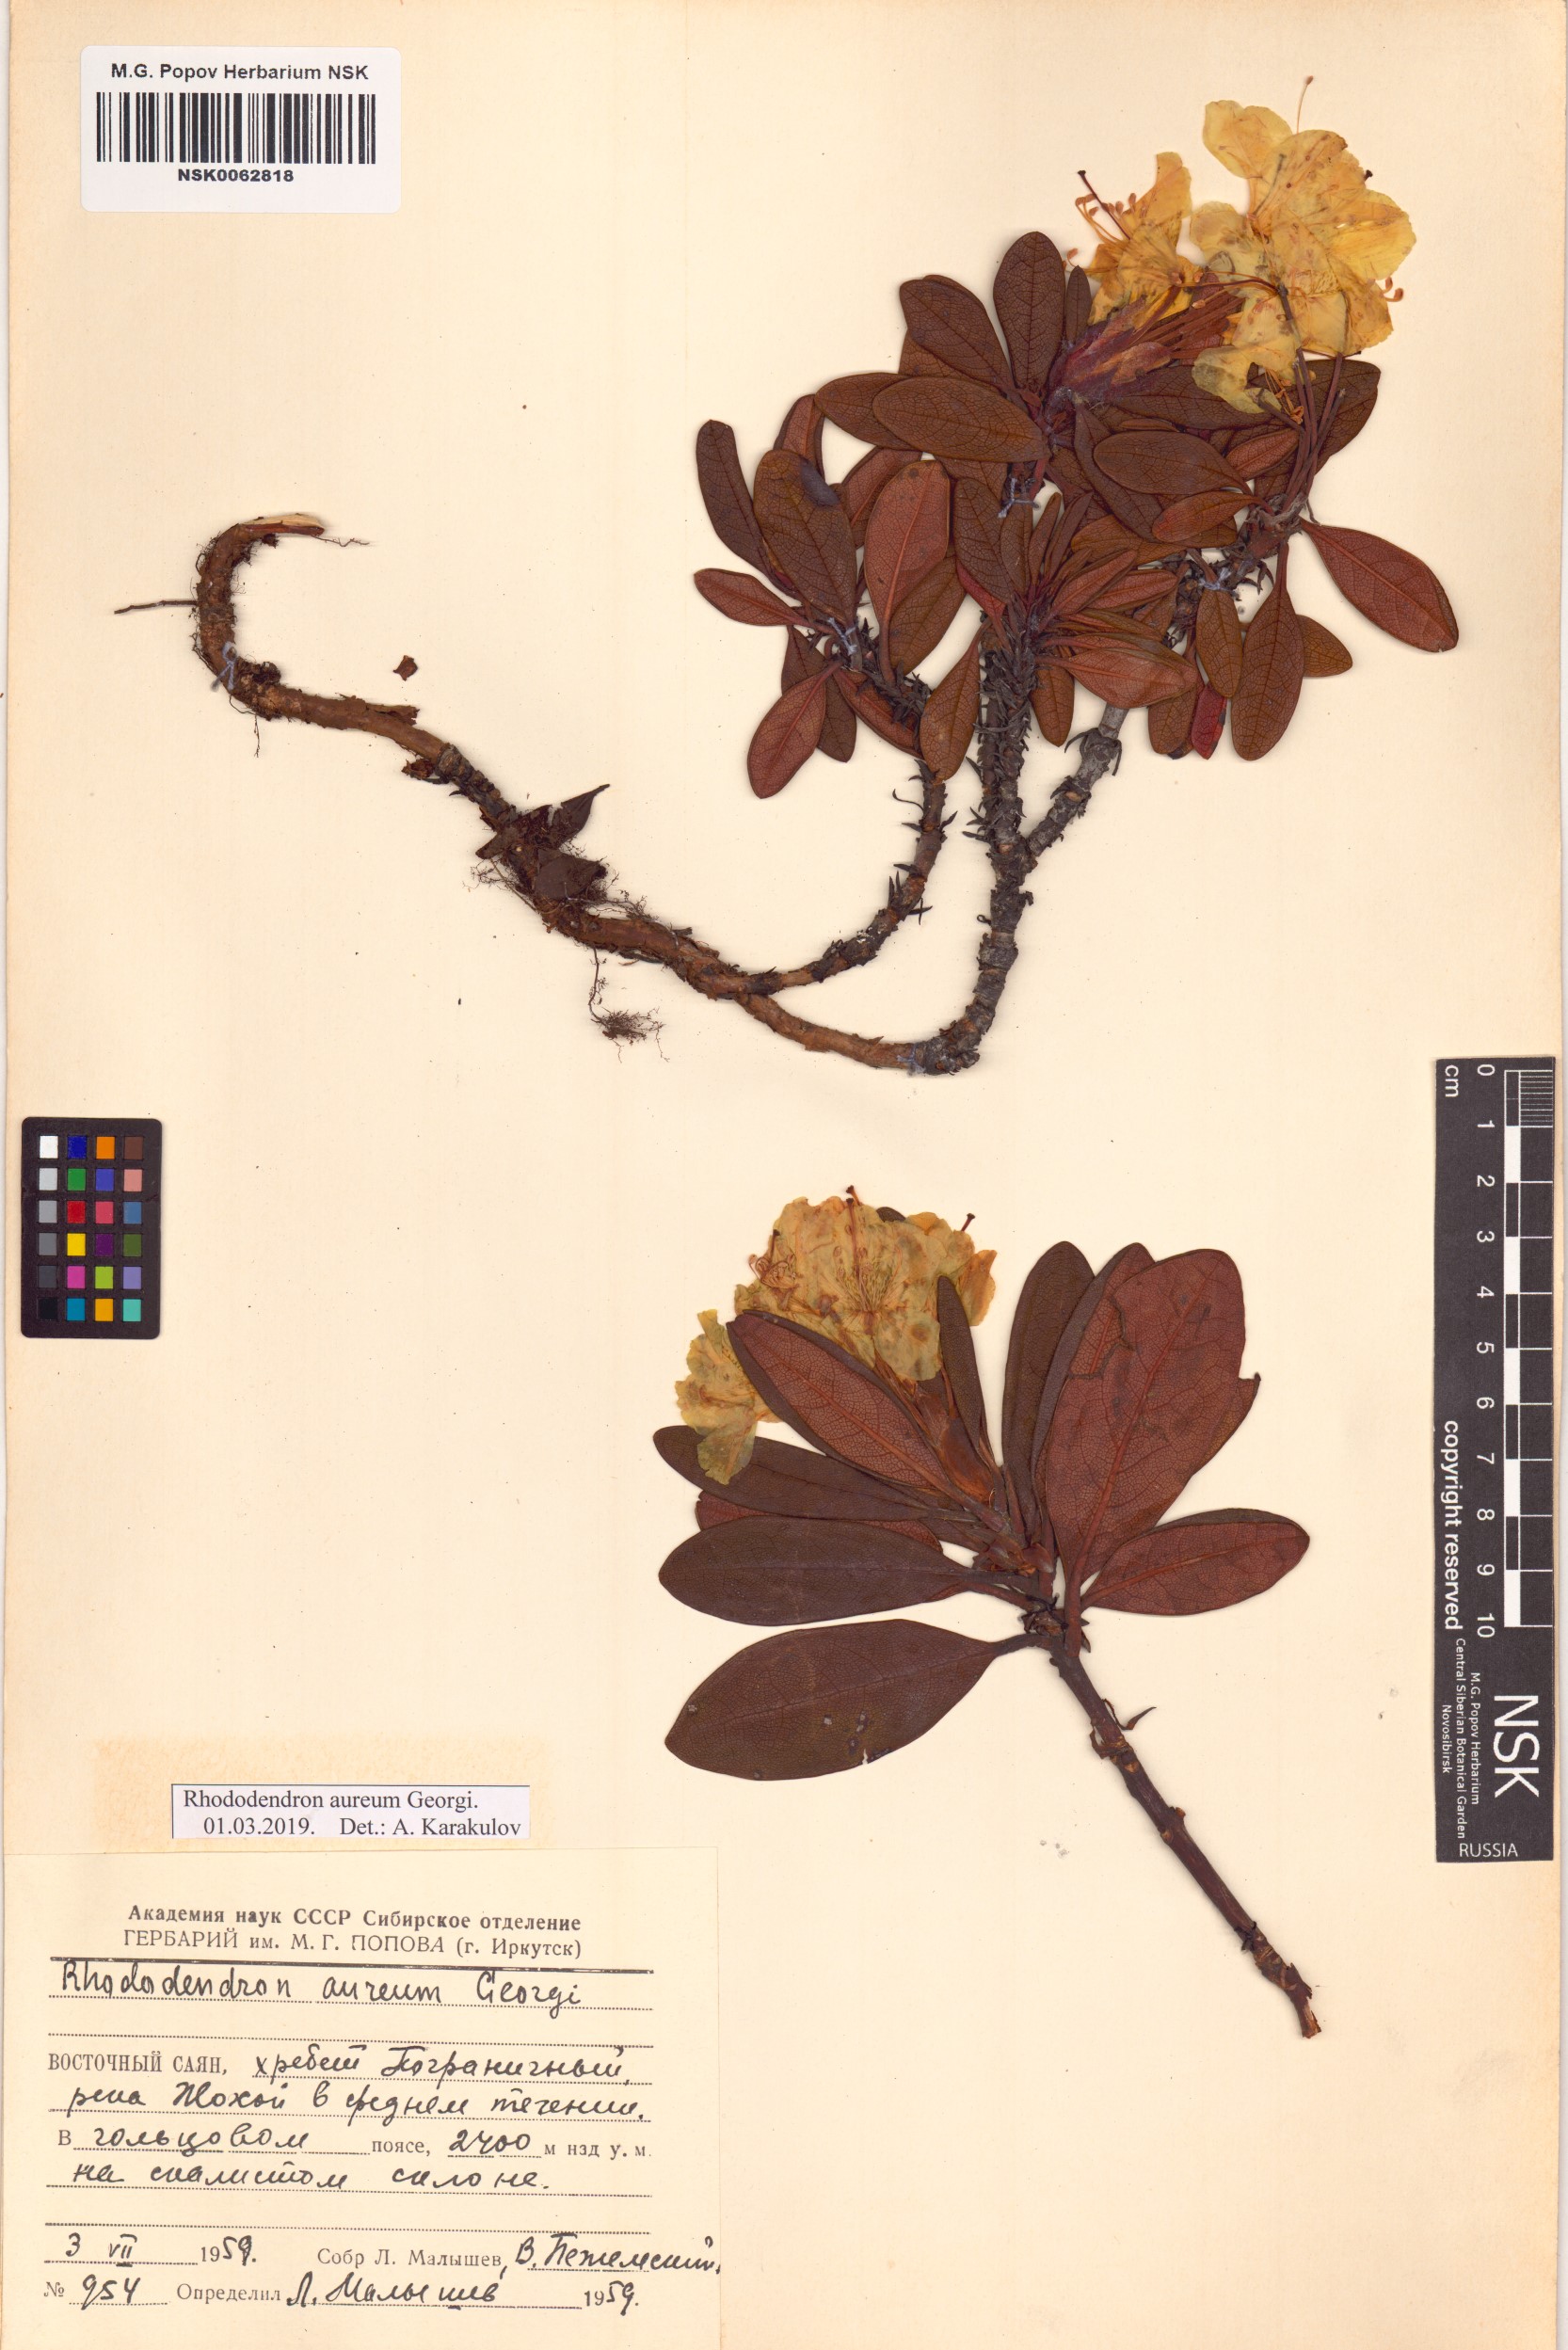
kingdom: Plantae
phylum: Tracheophyta
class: Magnoliopsida
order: Ericales
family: Ericaceae
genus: Rhododendron
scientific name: Rhododendron aureum
